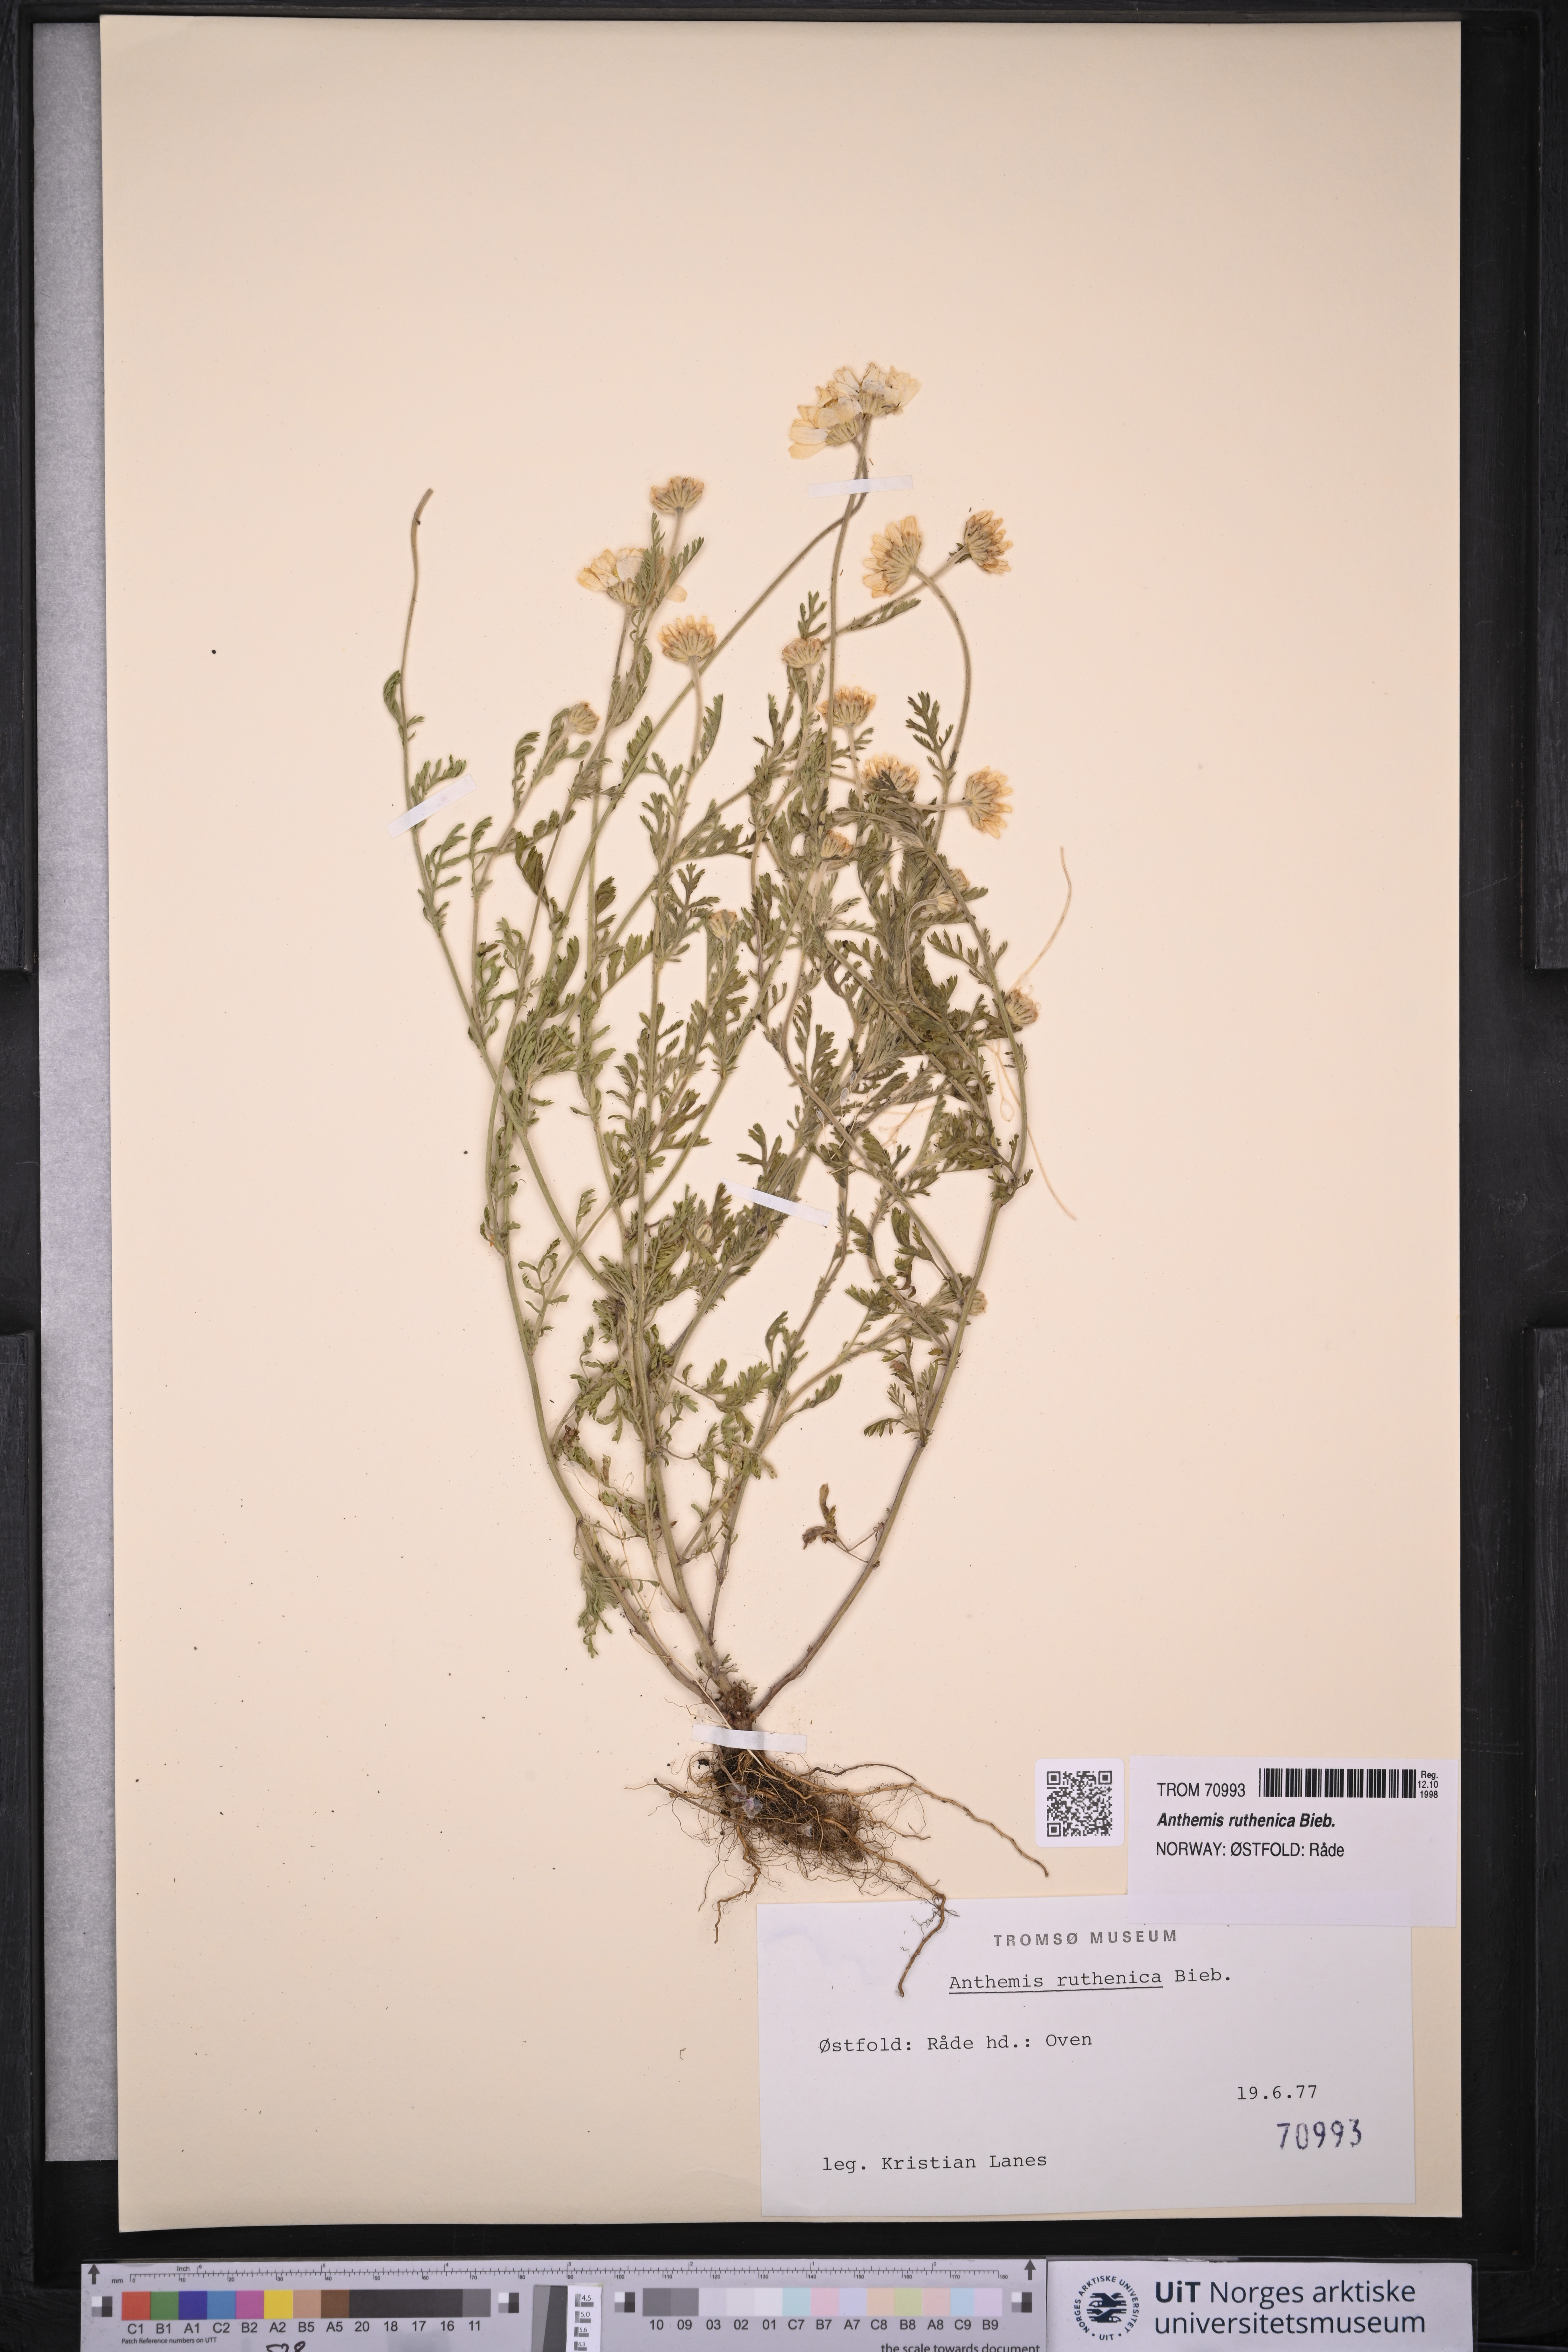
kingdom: Plantae
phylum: Tracheophyta
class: Magnoliopsida
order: Asterales
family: Asteraceae
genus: Anthemis
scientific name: Anthemis ruthenica
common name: Eastern chamomile
